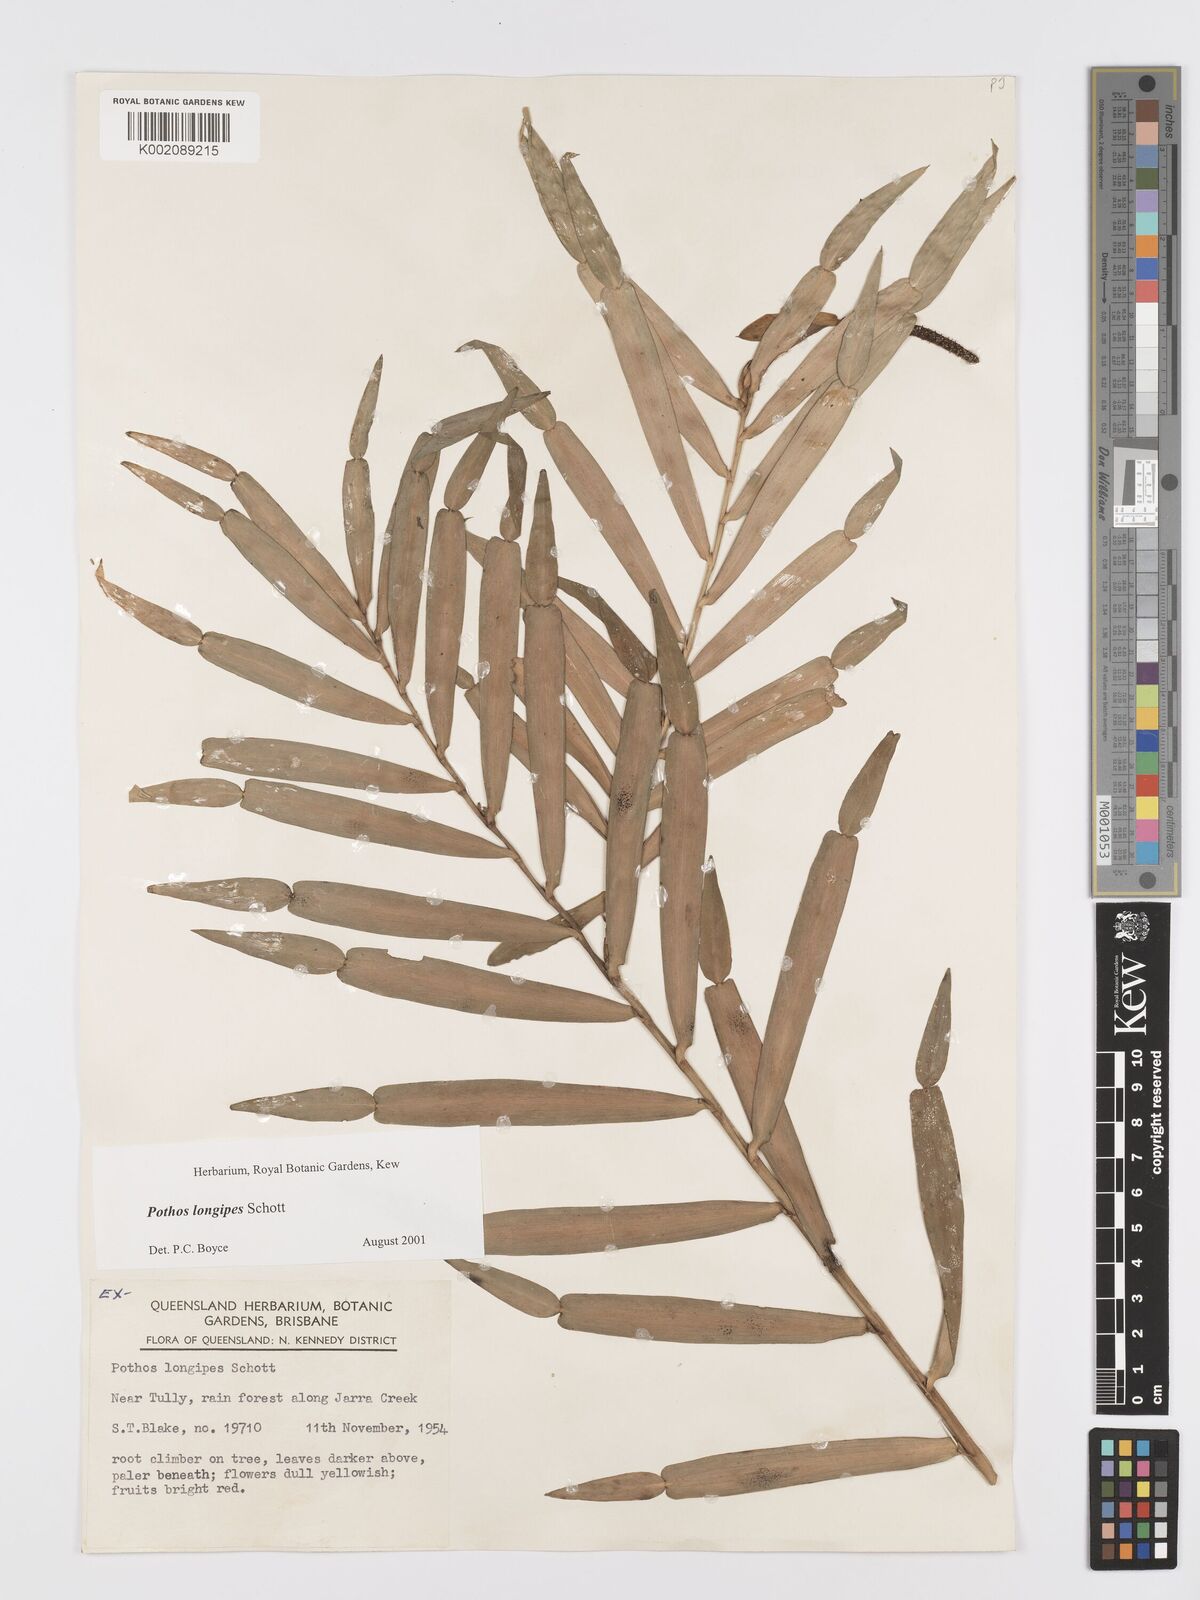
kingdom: Plantae
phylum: Tracheophyta
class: Liliopsida
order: Alismatales
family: Araceae
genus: Pothos
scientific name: Pothos longipes
